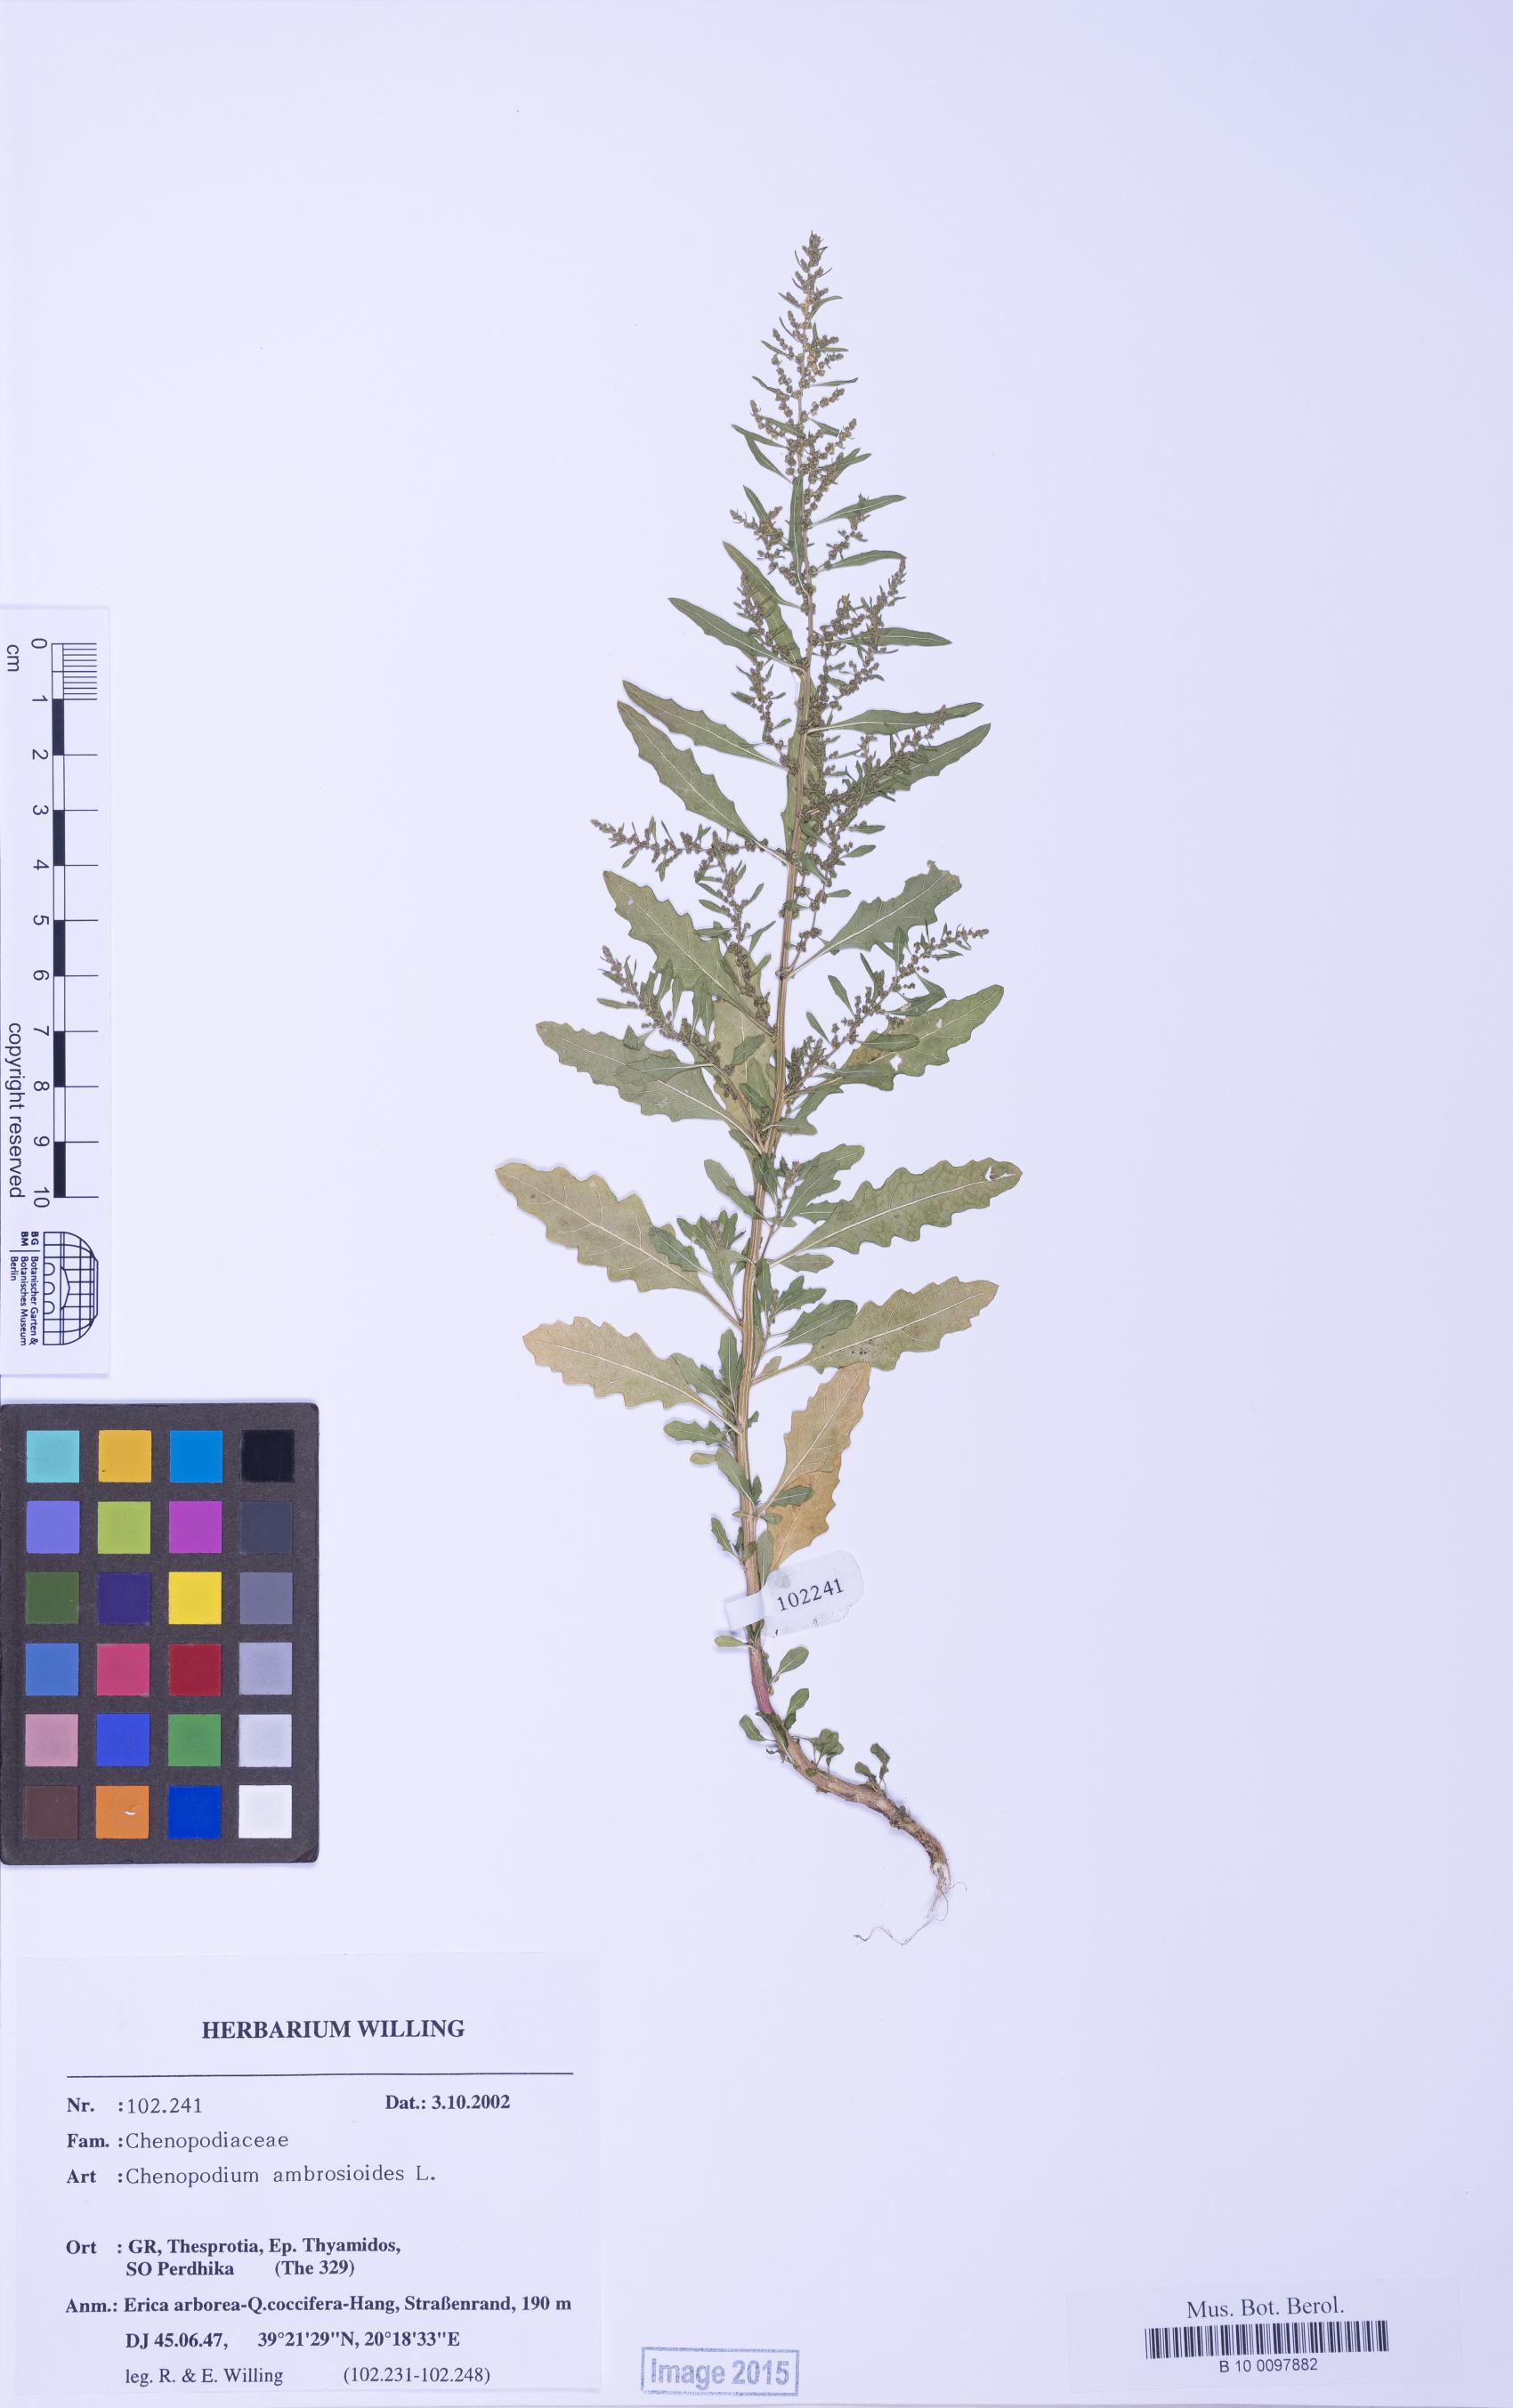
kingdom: Plantae
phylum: Tracheophyta
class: Magnoliopsida
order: Caryophyllales
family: Amaranthaceae
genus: Dysphania
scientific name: Dysphania ambrosioides
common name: Wormseed
